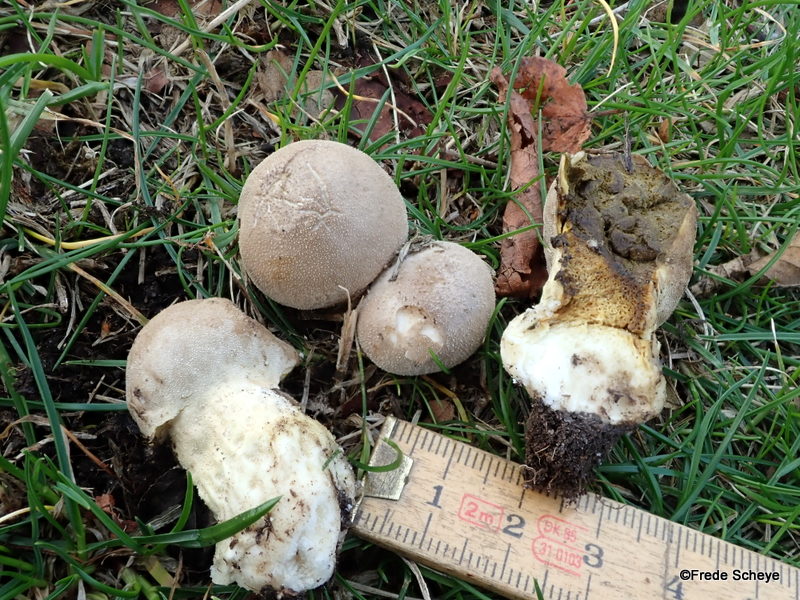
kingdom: Fungi
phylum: Basidiomycota
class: Agaricomycetes
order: Agaricales
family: Lycoperdaceae
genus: Lycoperdon
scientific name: Lycoperdon lividum
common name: mark-støvbold
